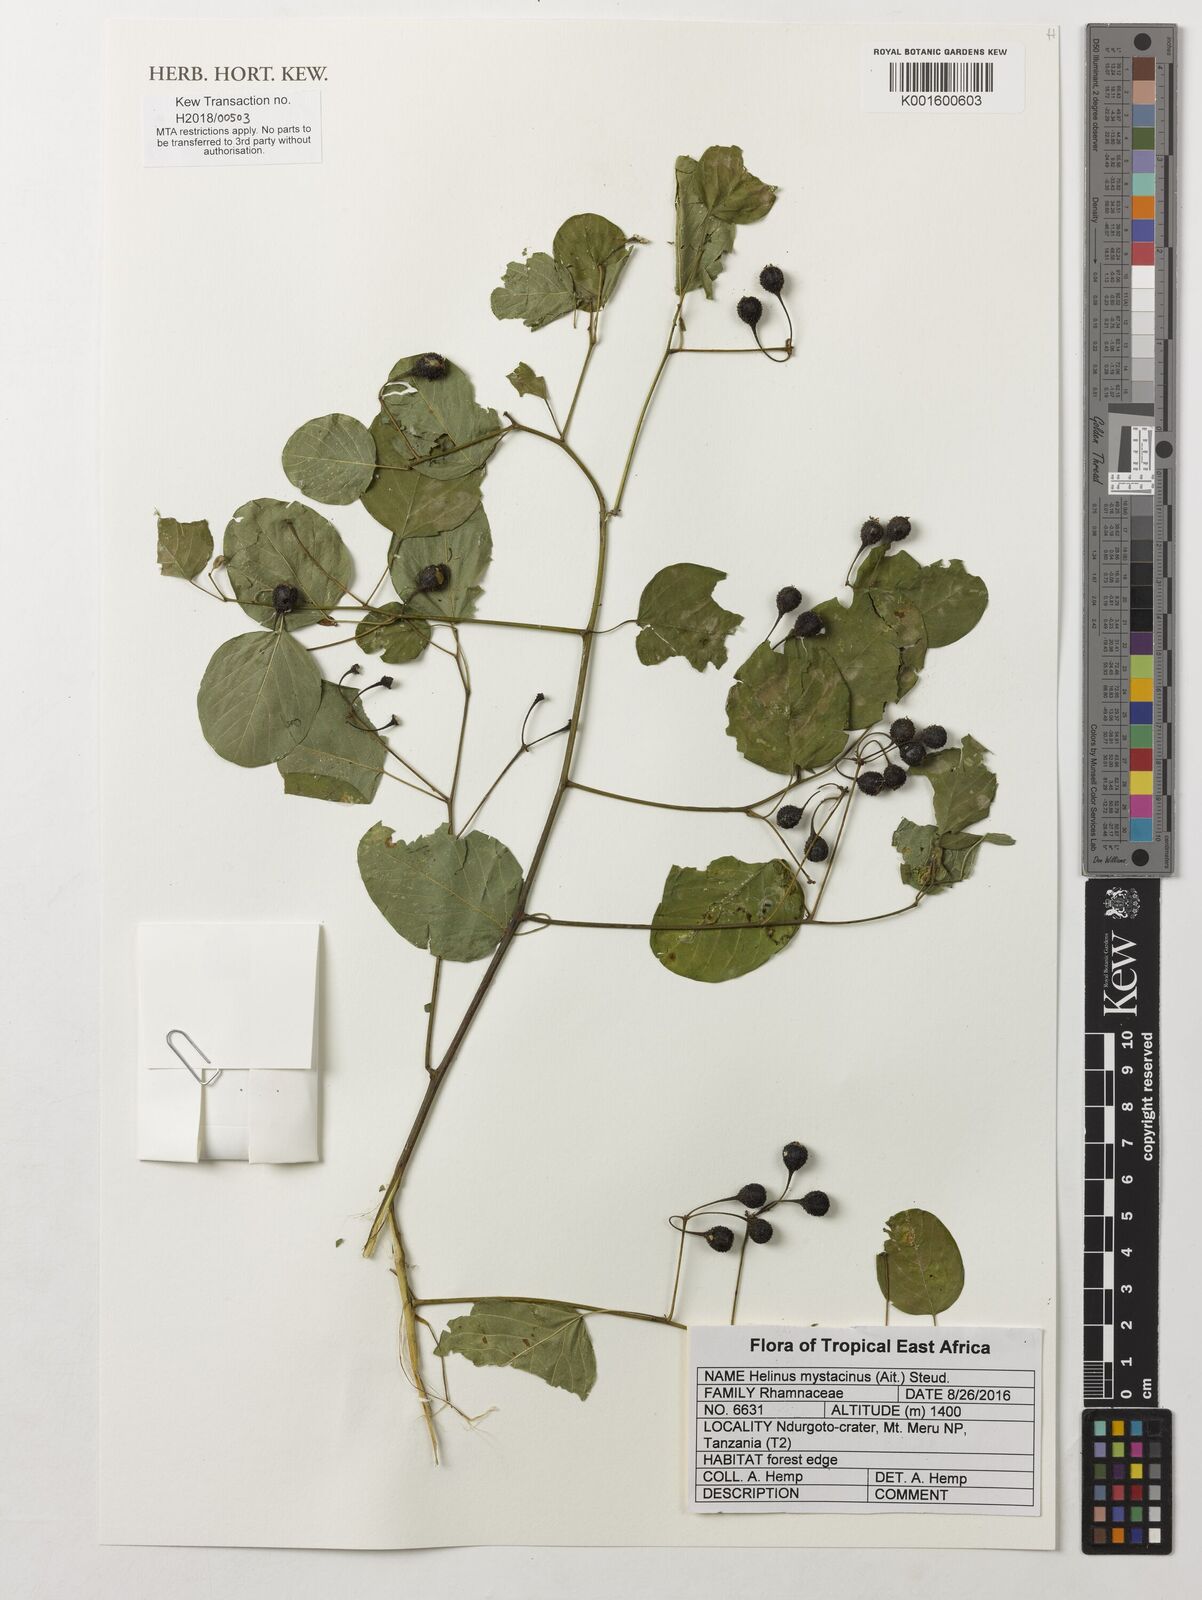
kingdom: Plantae
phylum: Tracheophyta
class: Magnoliopsida
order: Rosales
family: Rhamnaceae
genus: Helinus
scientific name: Helinus mystacinus
